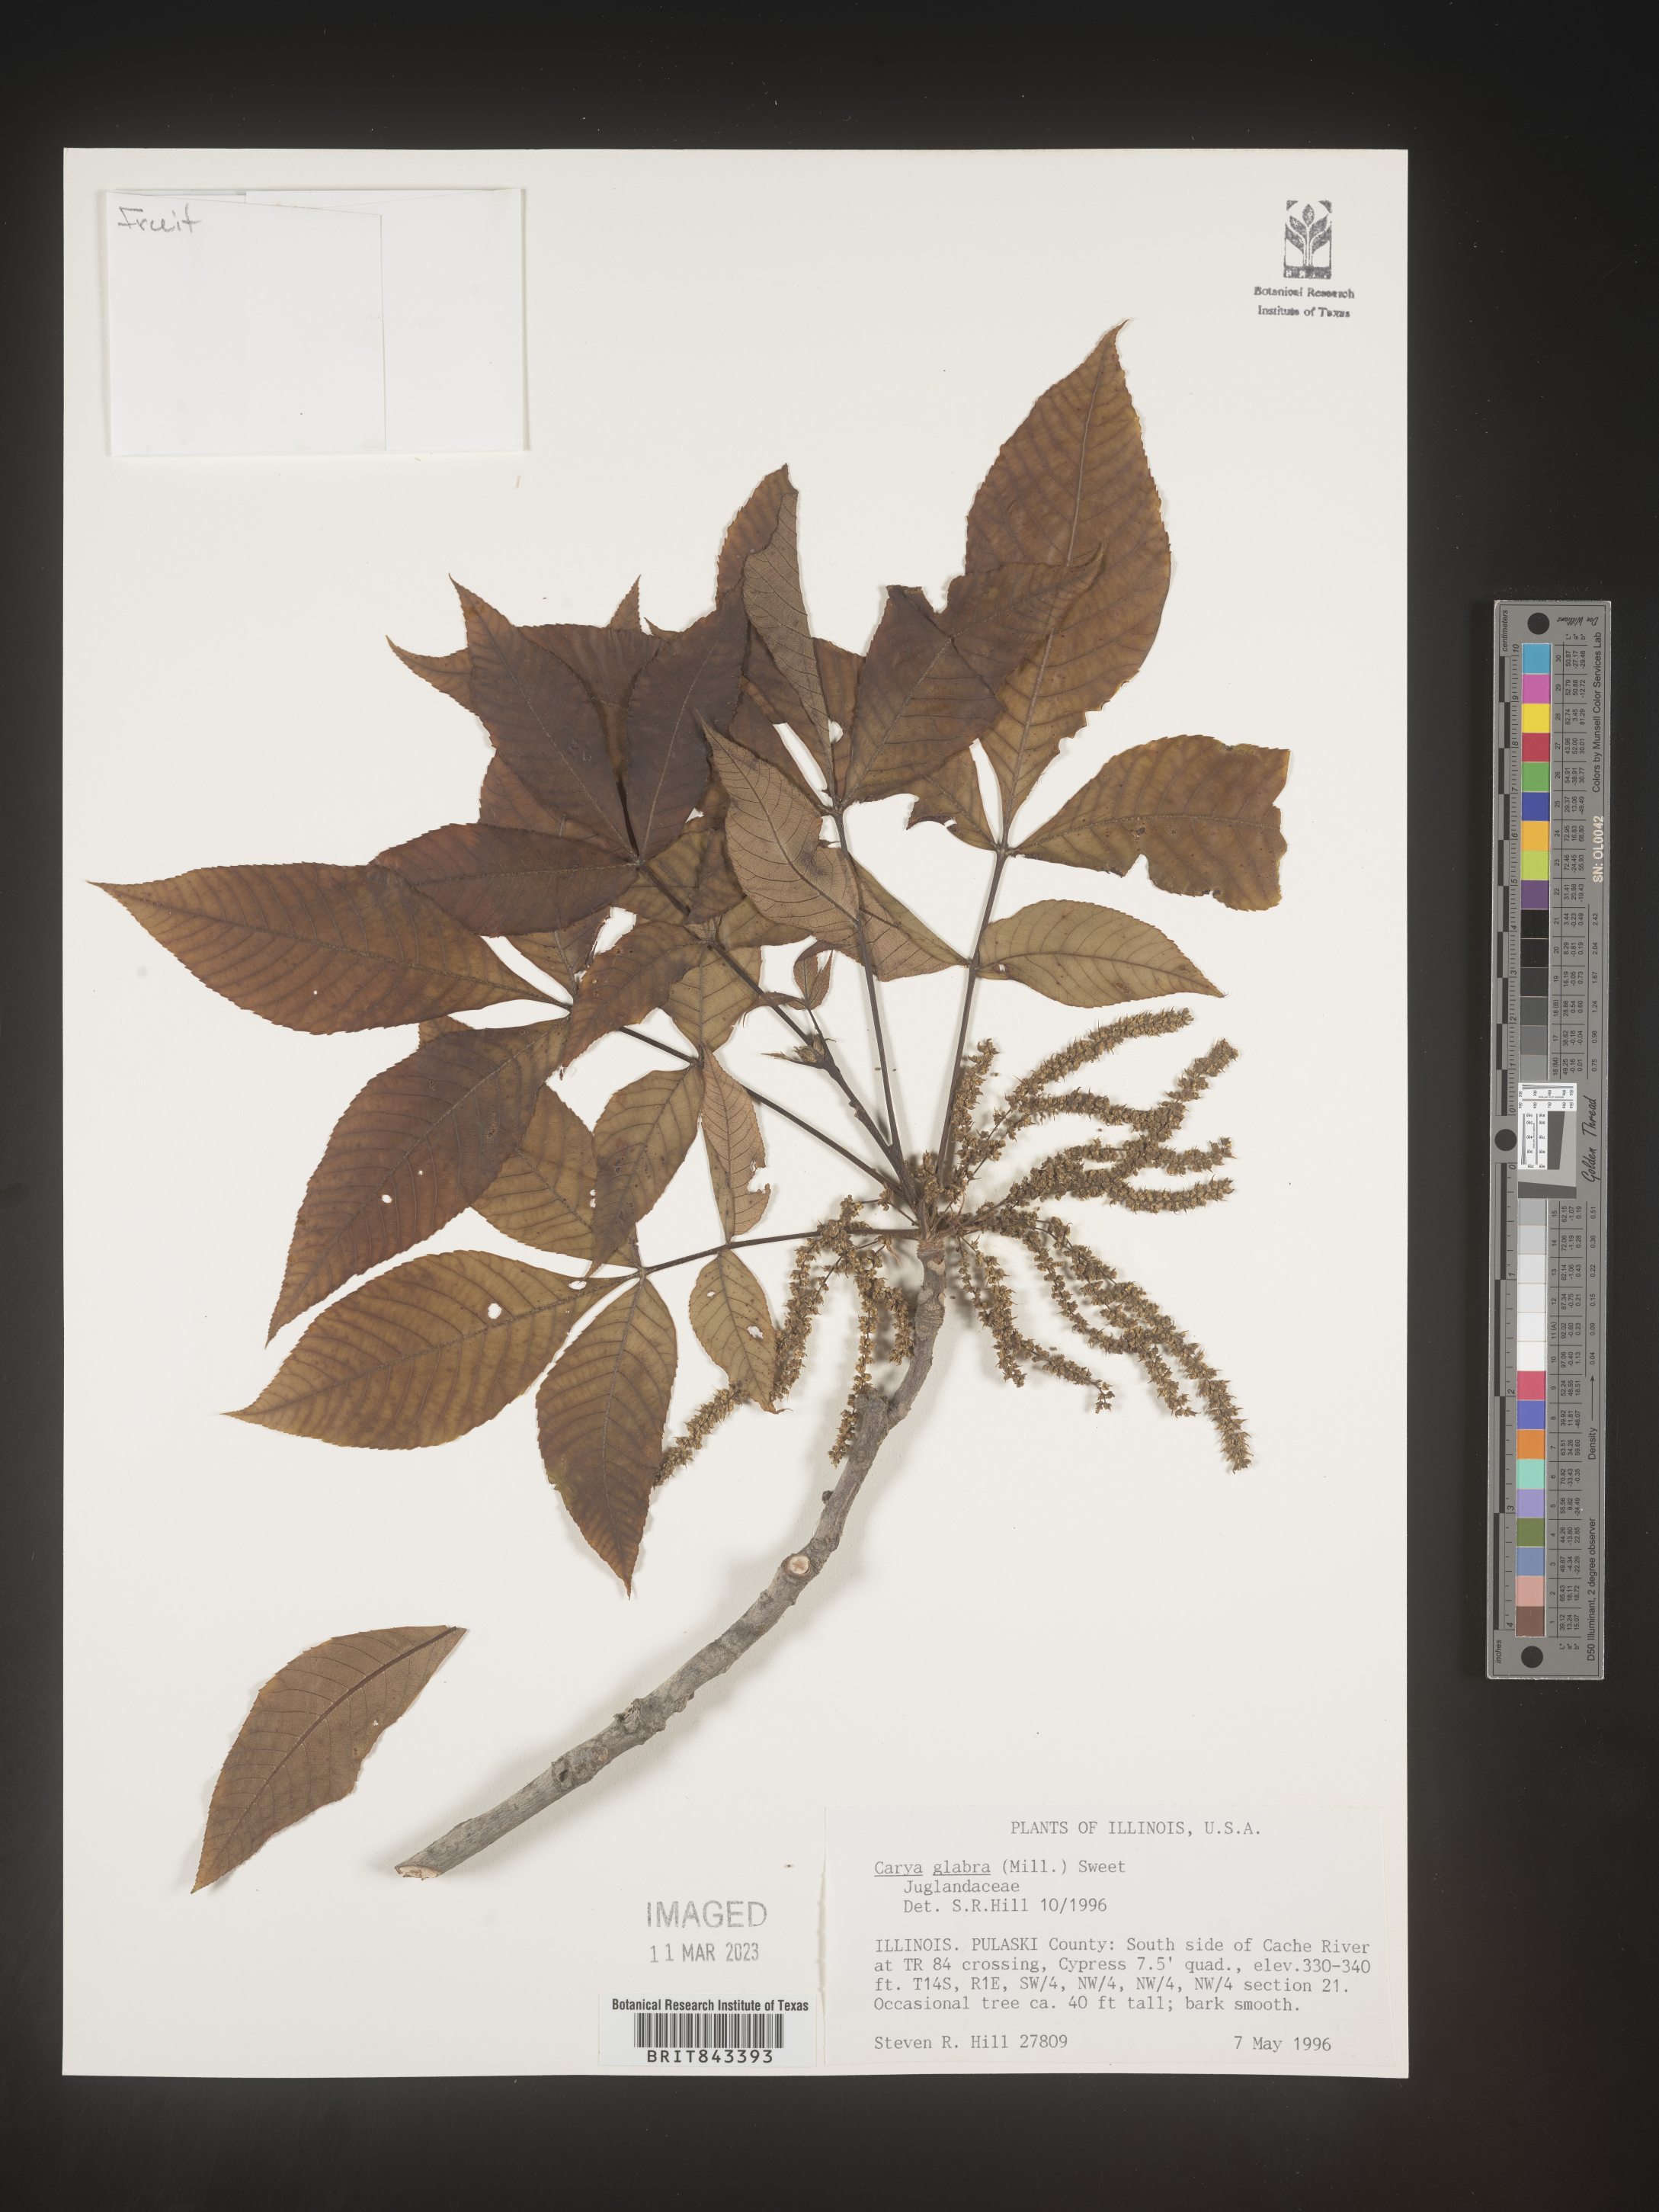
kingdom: Plantae
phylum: Tracheophyta
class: Magnoliopsida
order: Fagales
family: Juglandaceae
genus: Carya
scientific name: Carya glabra
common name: Pignut hickory
